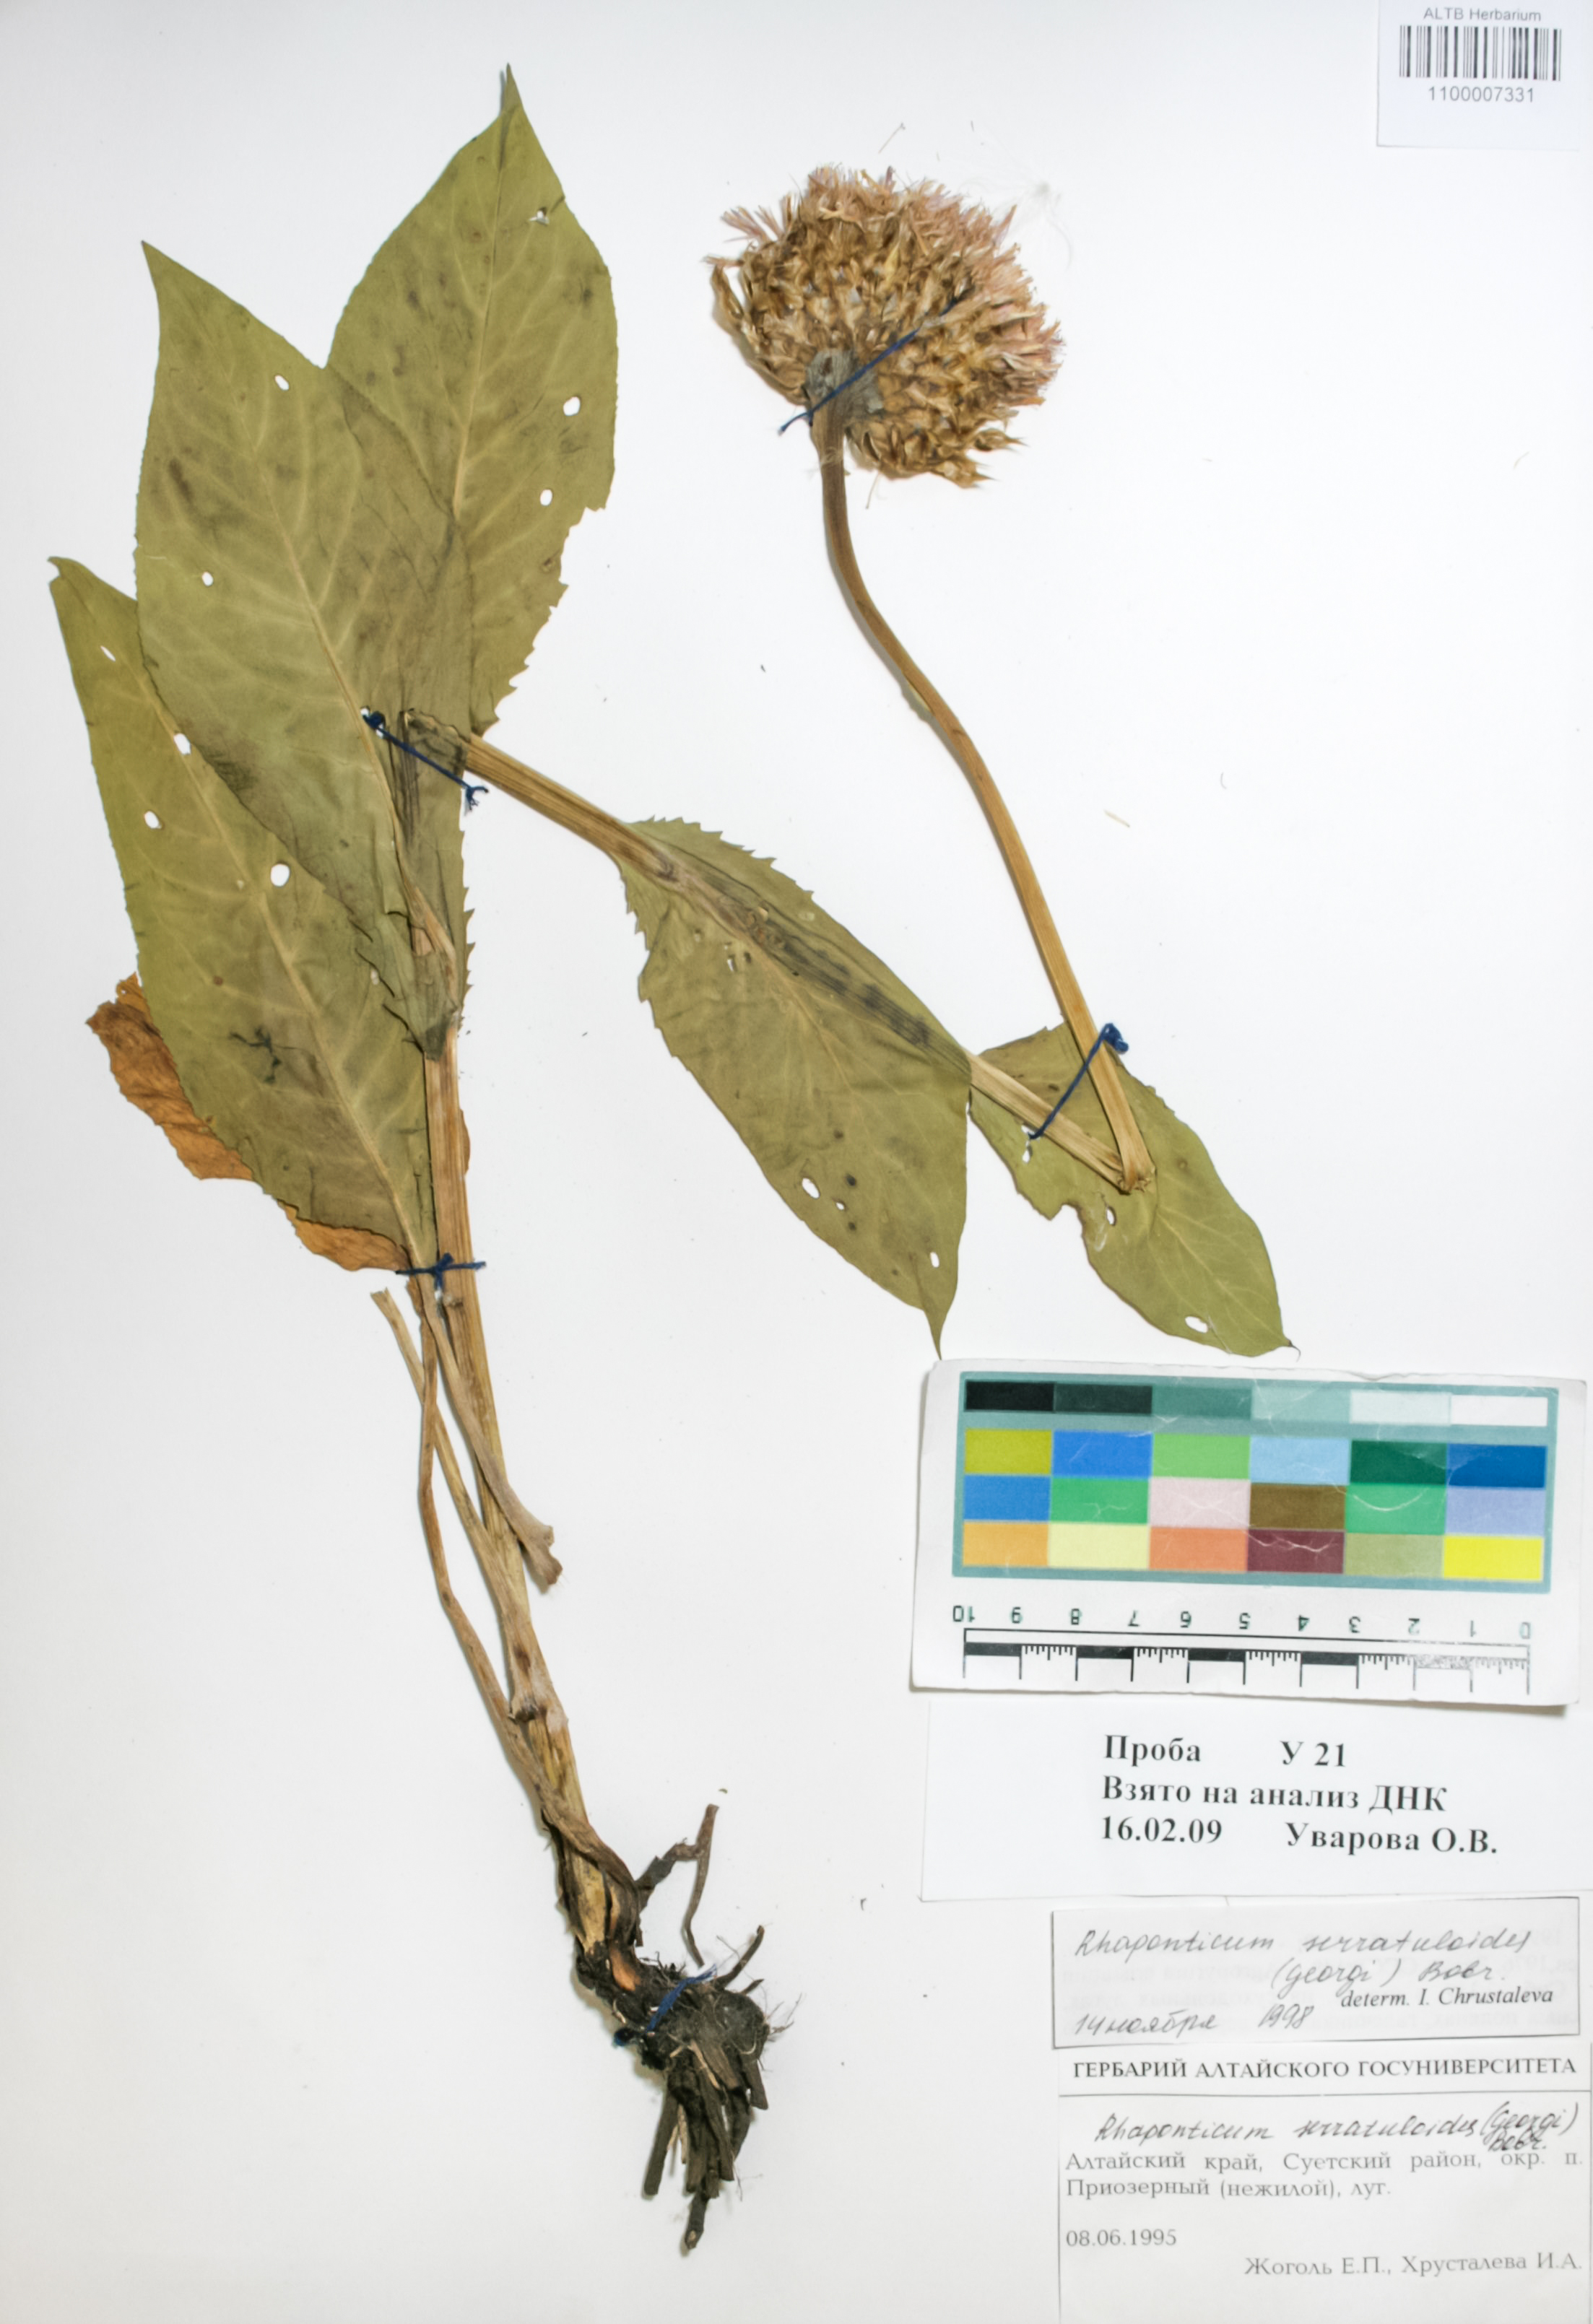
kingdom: Plantae
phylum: Tracheophyta
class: Magnoliopsida
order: Asterales
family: Asteraceae
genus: Leuzea
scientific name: Leuzea altaica
